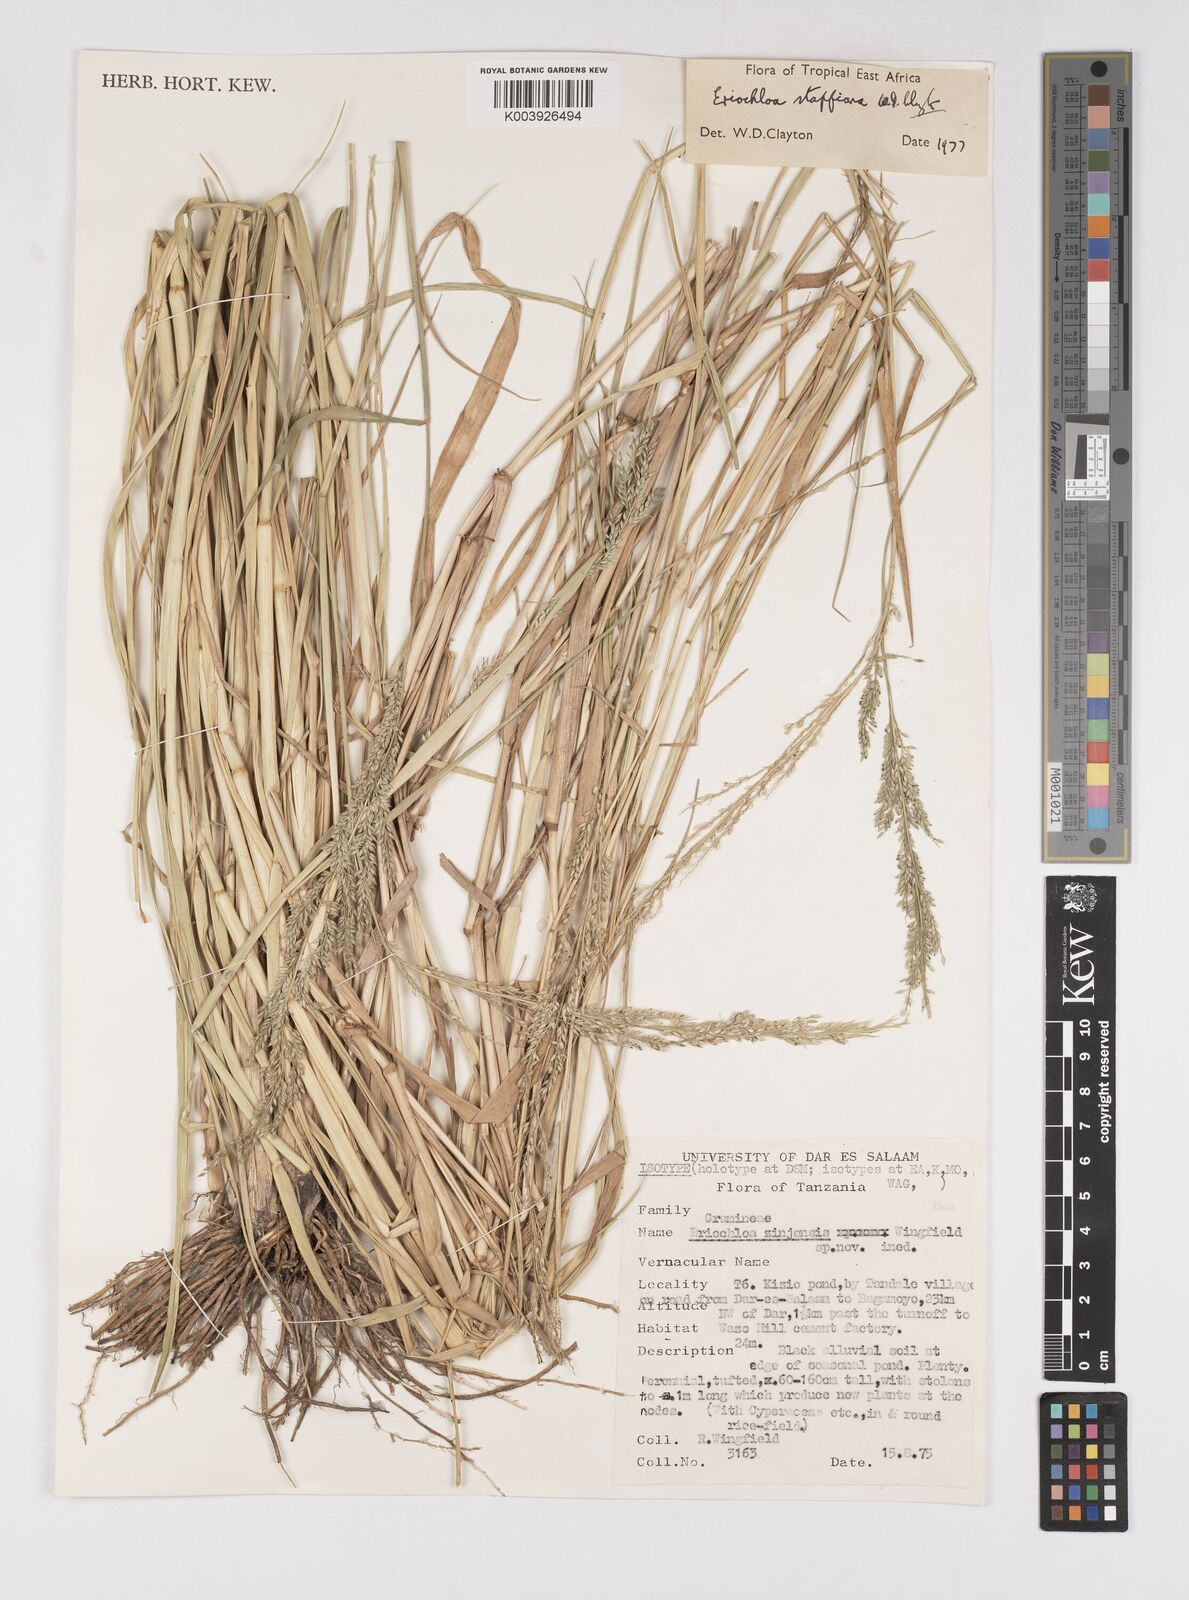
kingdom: Plantae
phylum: Tracheophyta
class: Liliopsida
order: Poales
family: Poaceae
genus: Eriochloa
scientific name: Eriochloa stapfiana
